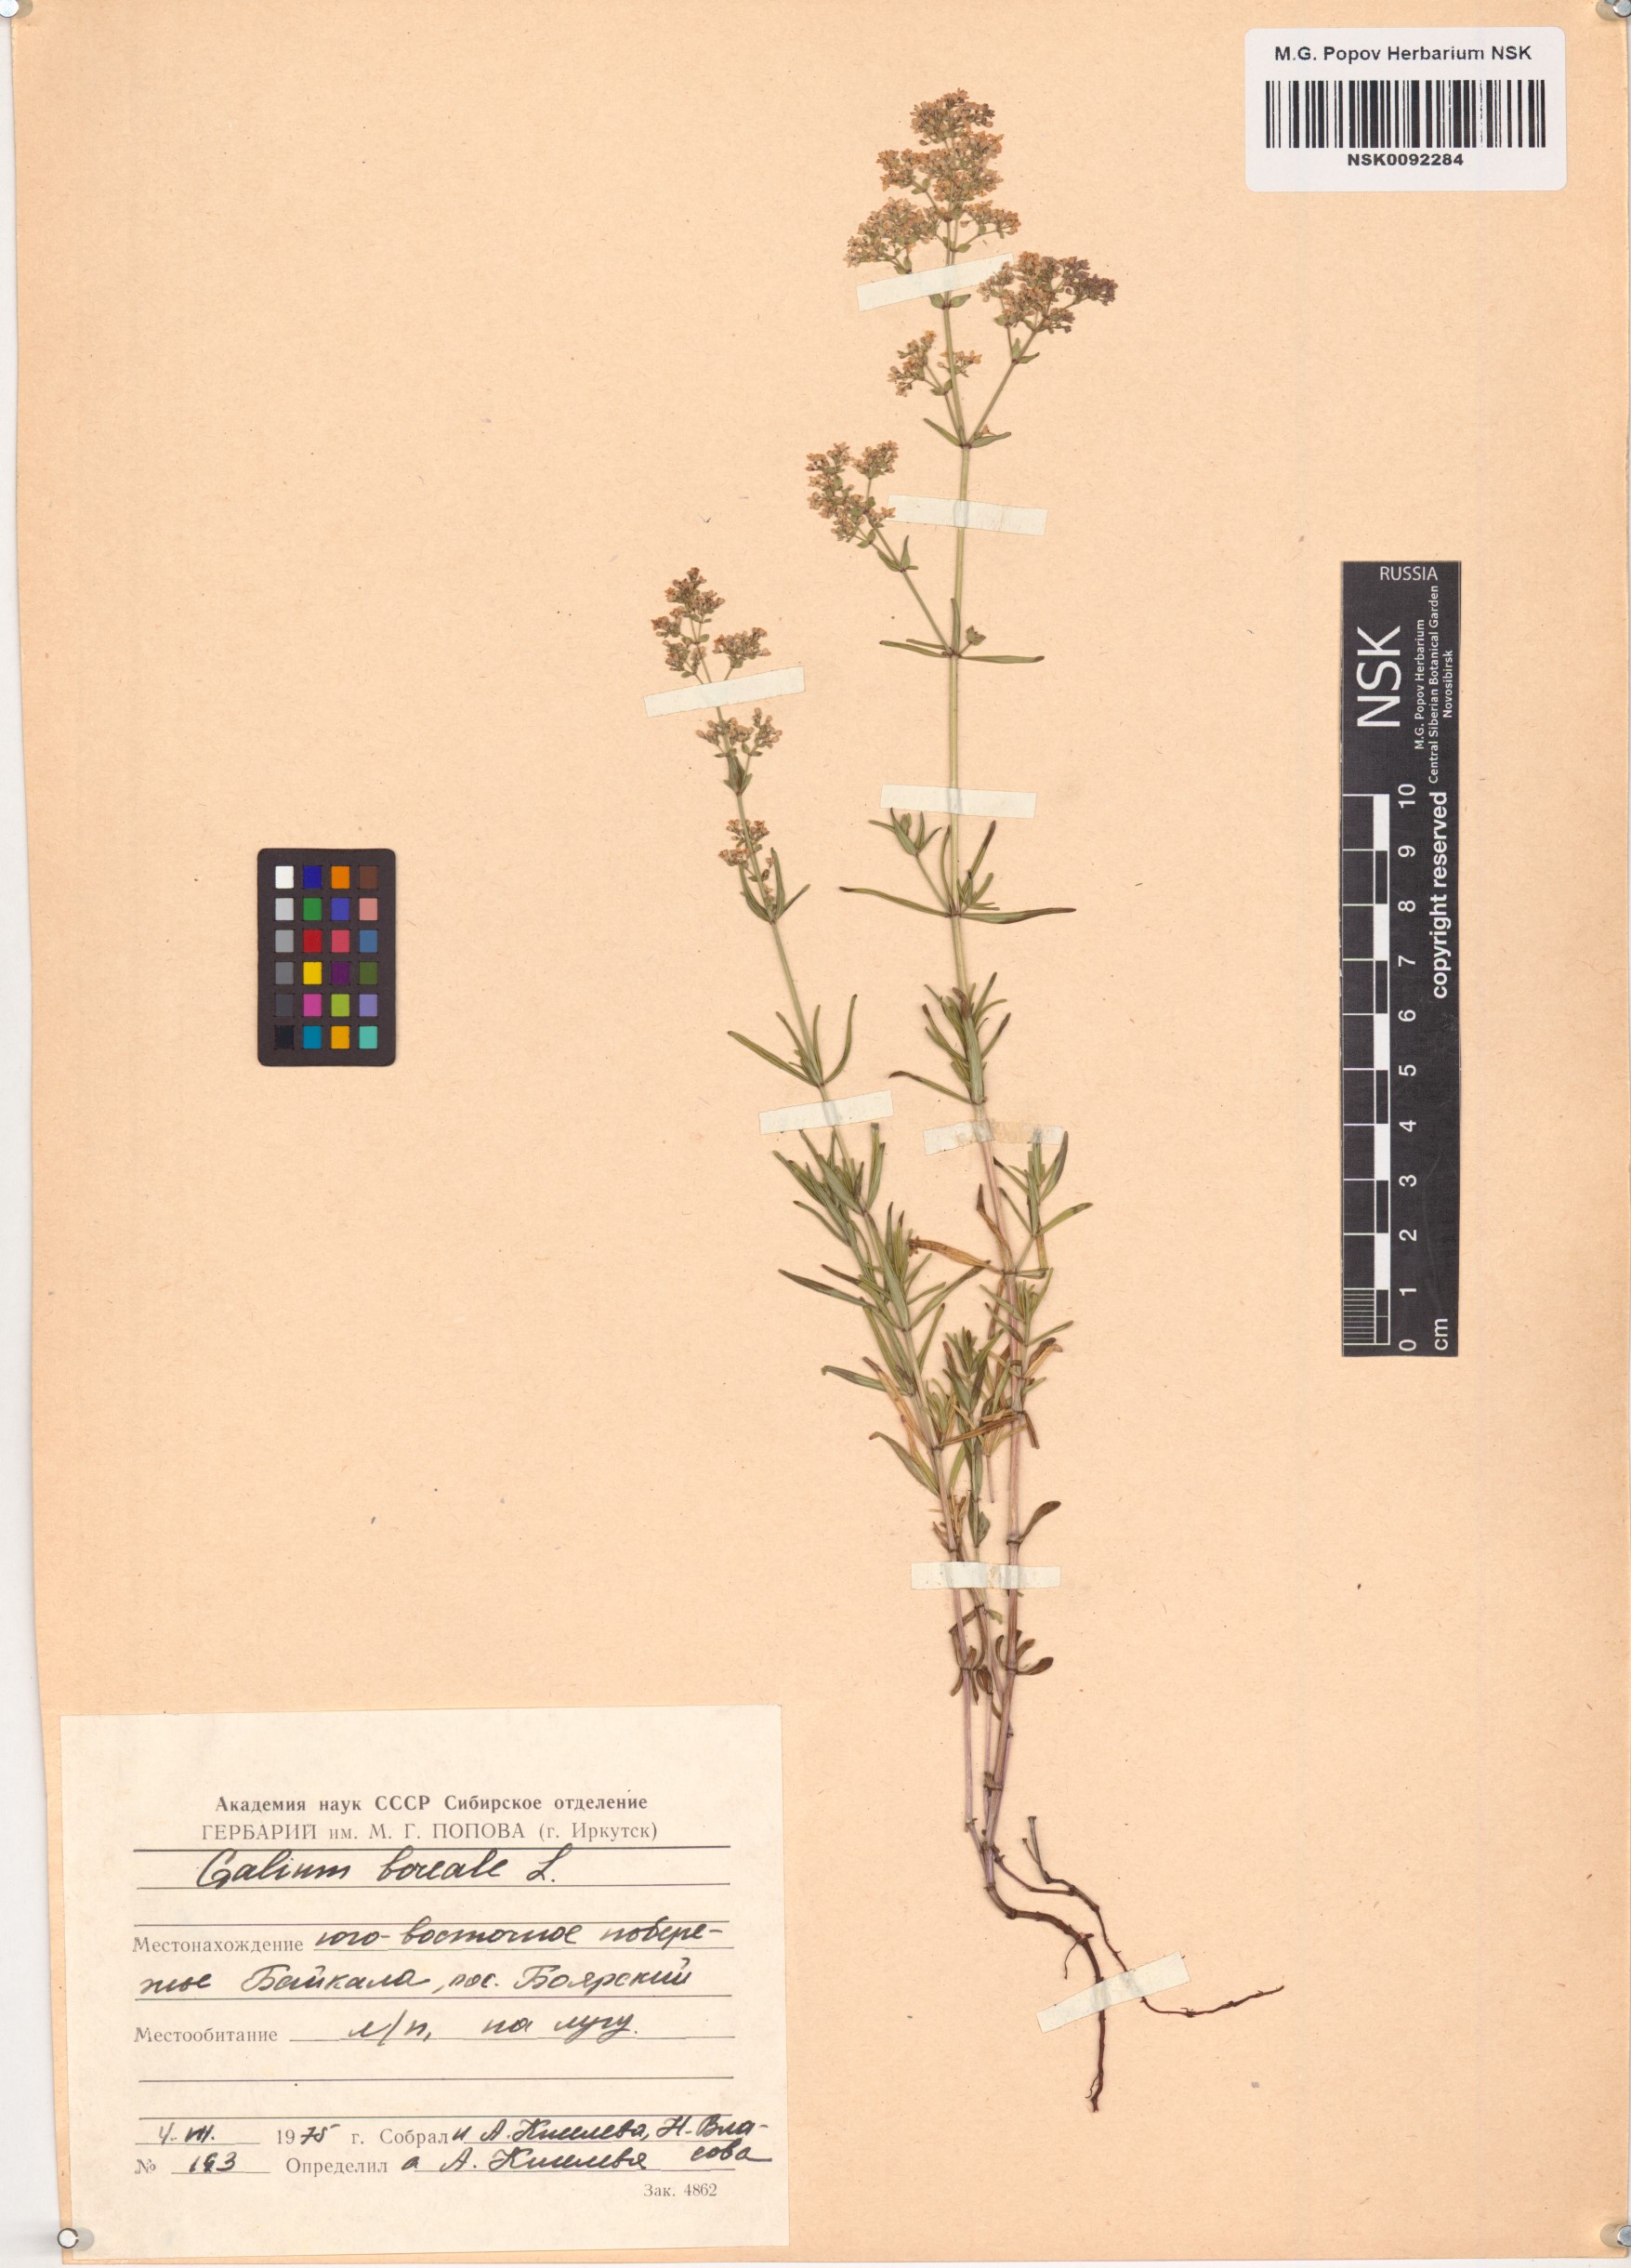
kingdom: Plantae
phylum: Tracheophyta
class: Magnoliopsida
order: Gentianales
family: Rubiaceae
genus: Galium
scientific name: Galium boreale
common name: Northern bedstraw
